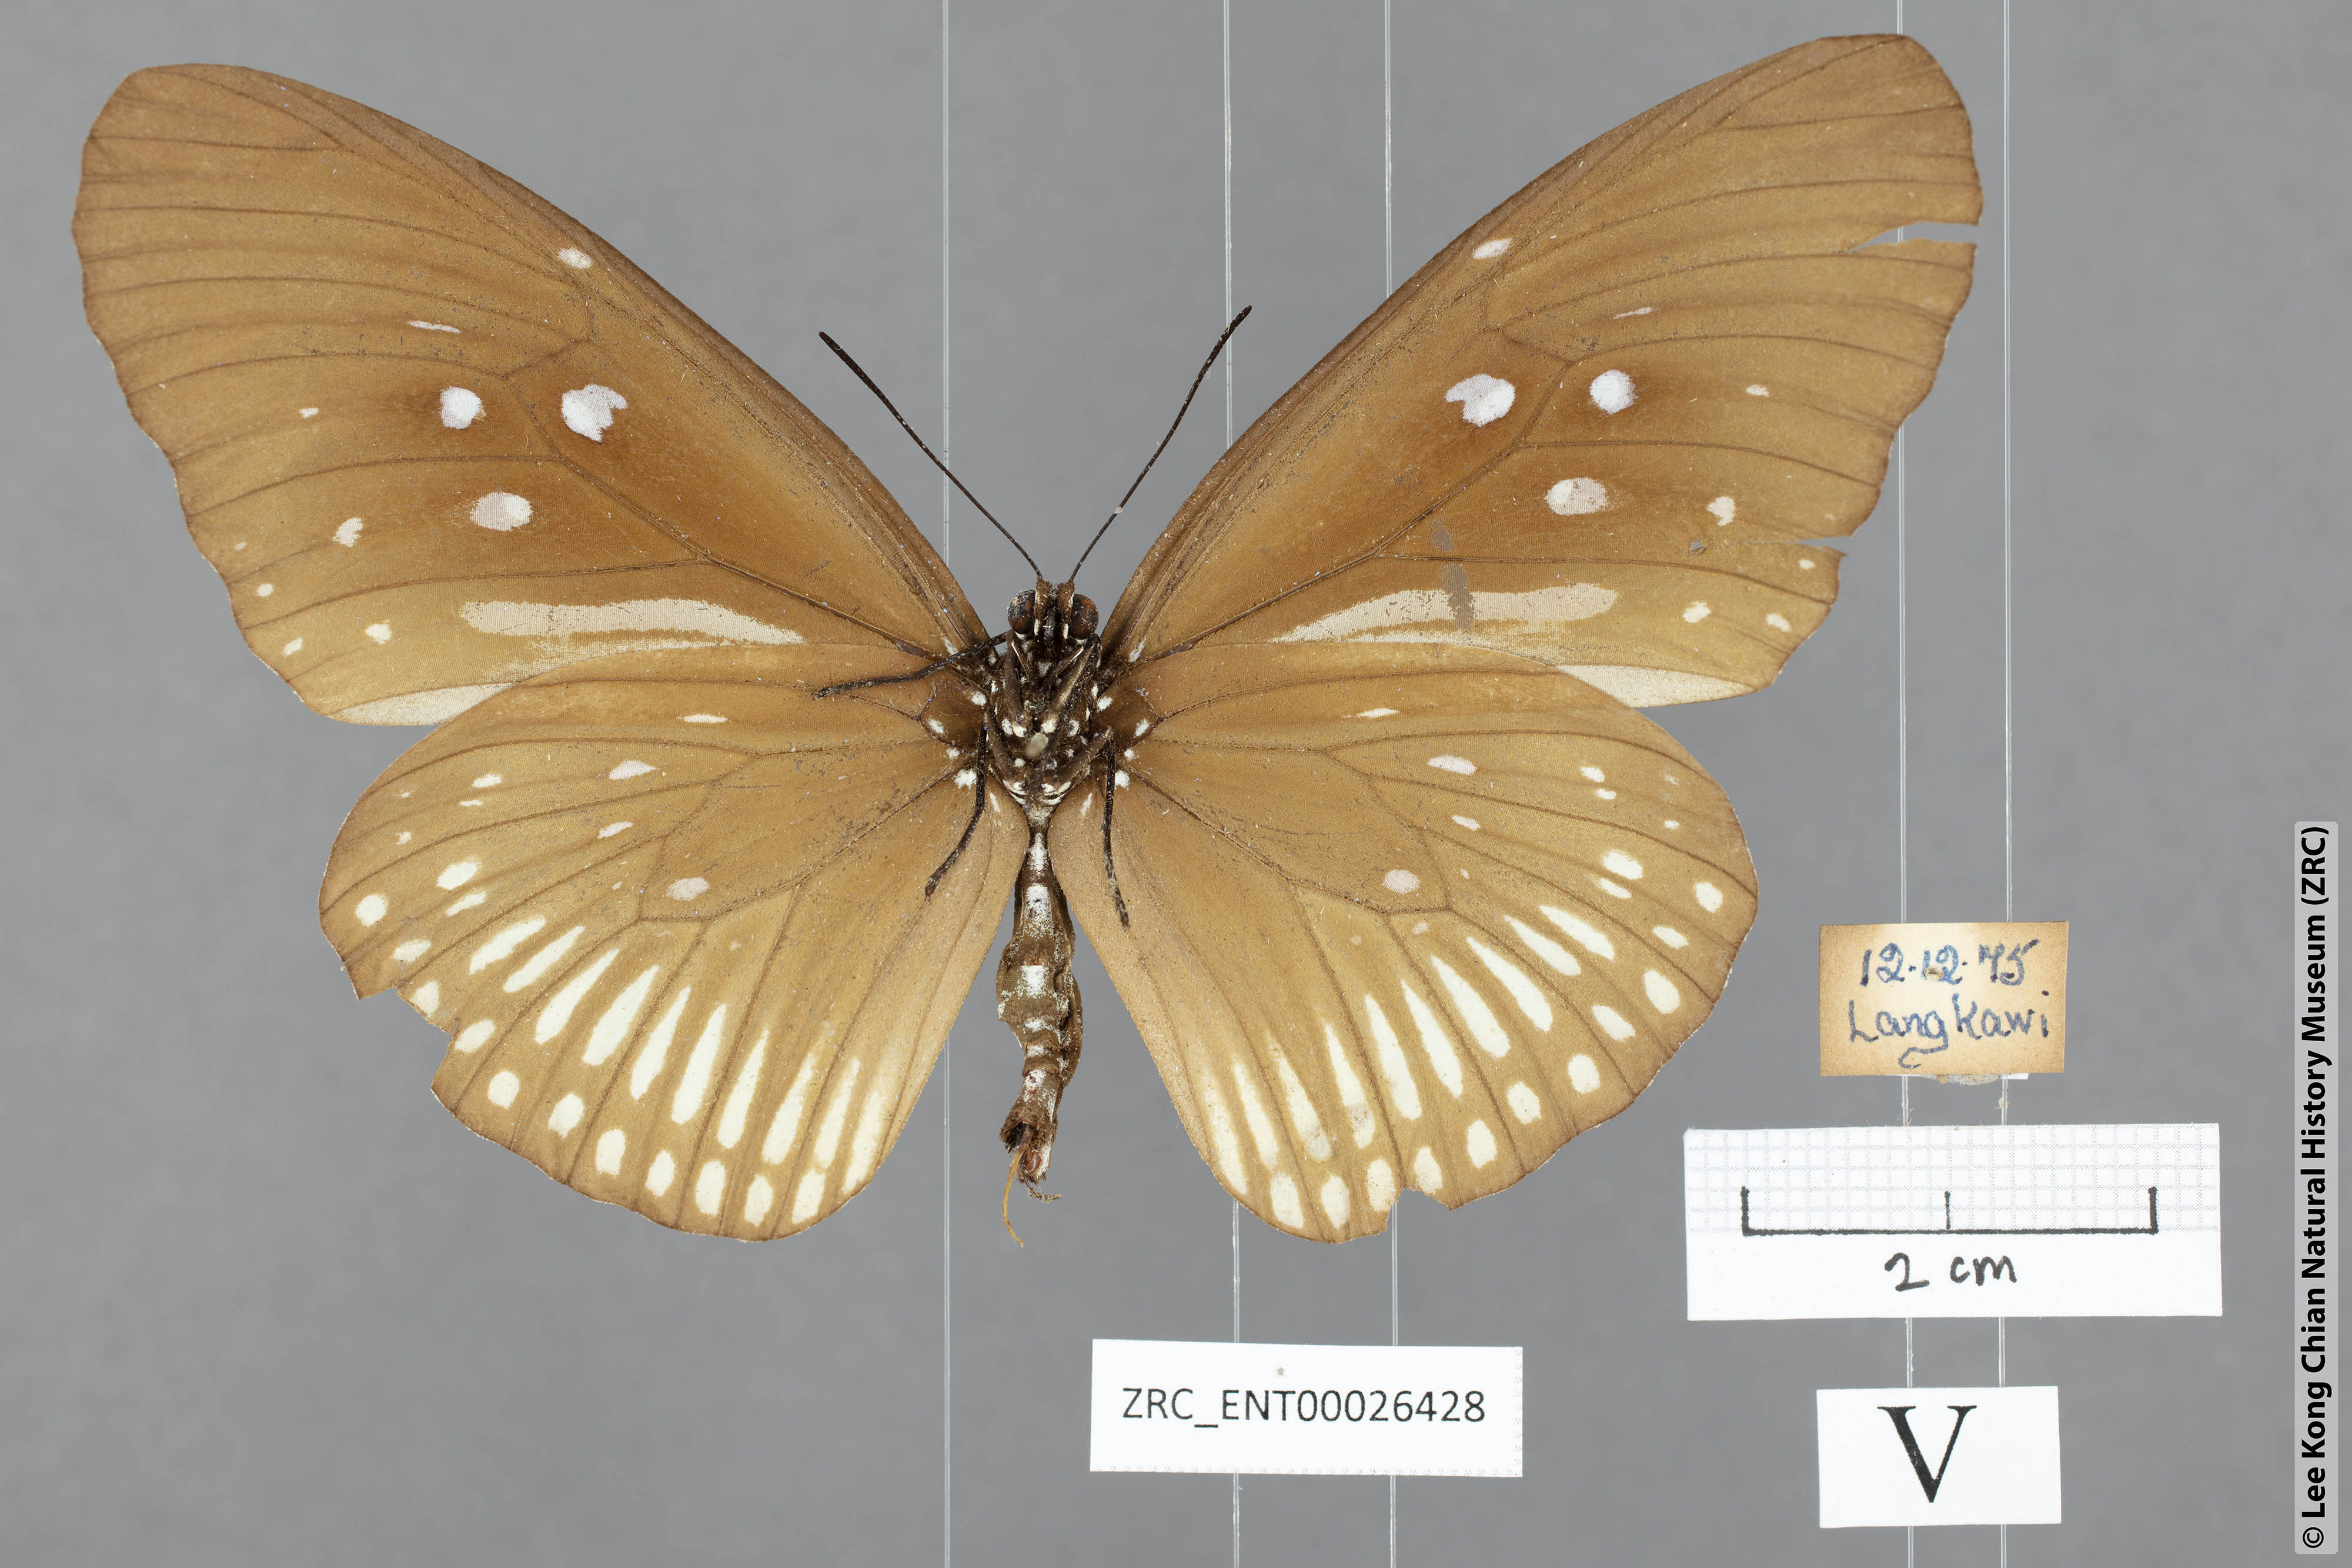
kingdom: Animalia
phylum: Arthropoda
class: Insecta
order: Lepidoptera
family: Nymphalidae
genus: Euploea
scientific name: Euploea doubledayi
